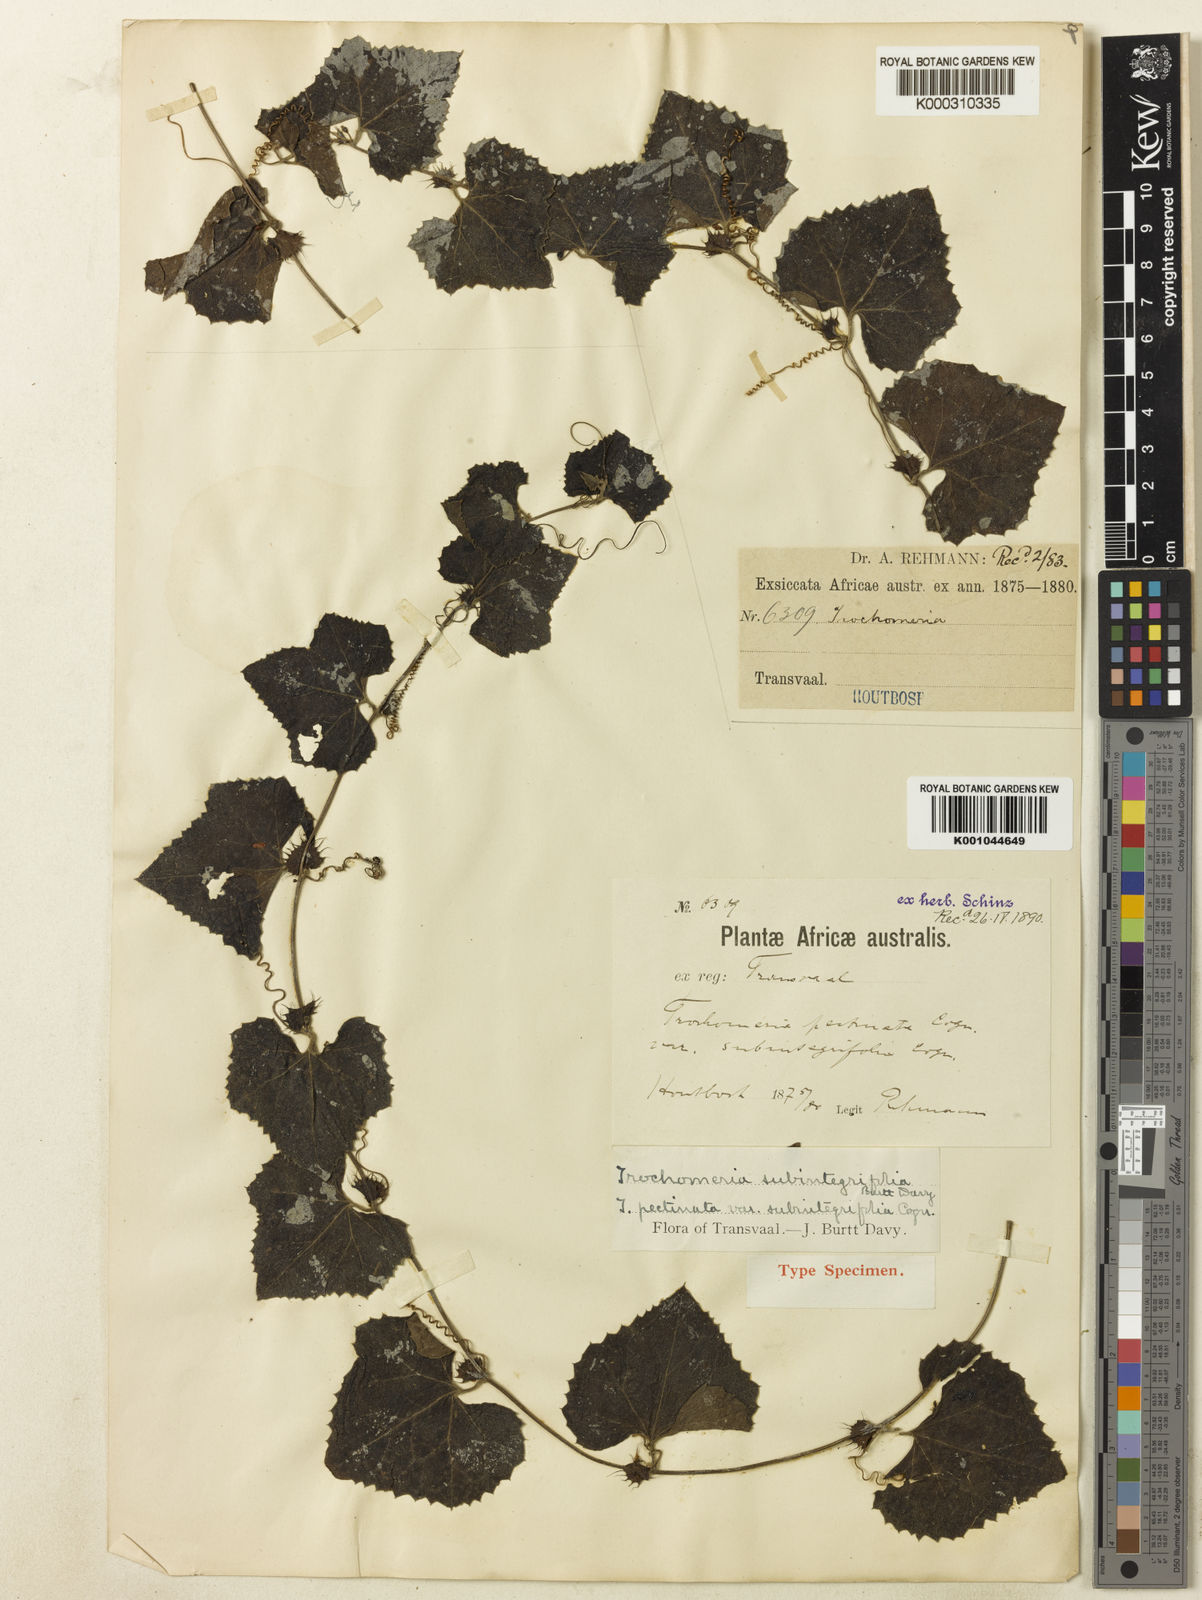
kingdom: Plantae
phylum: Tracheophyta
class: Magnoliopsida
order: Cucurbitales
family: Cucurbitaceae
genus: Trochomeria
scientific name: Trochomeria hookeri
